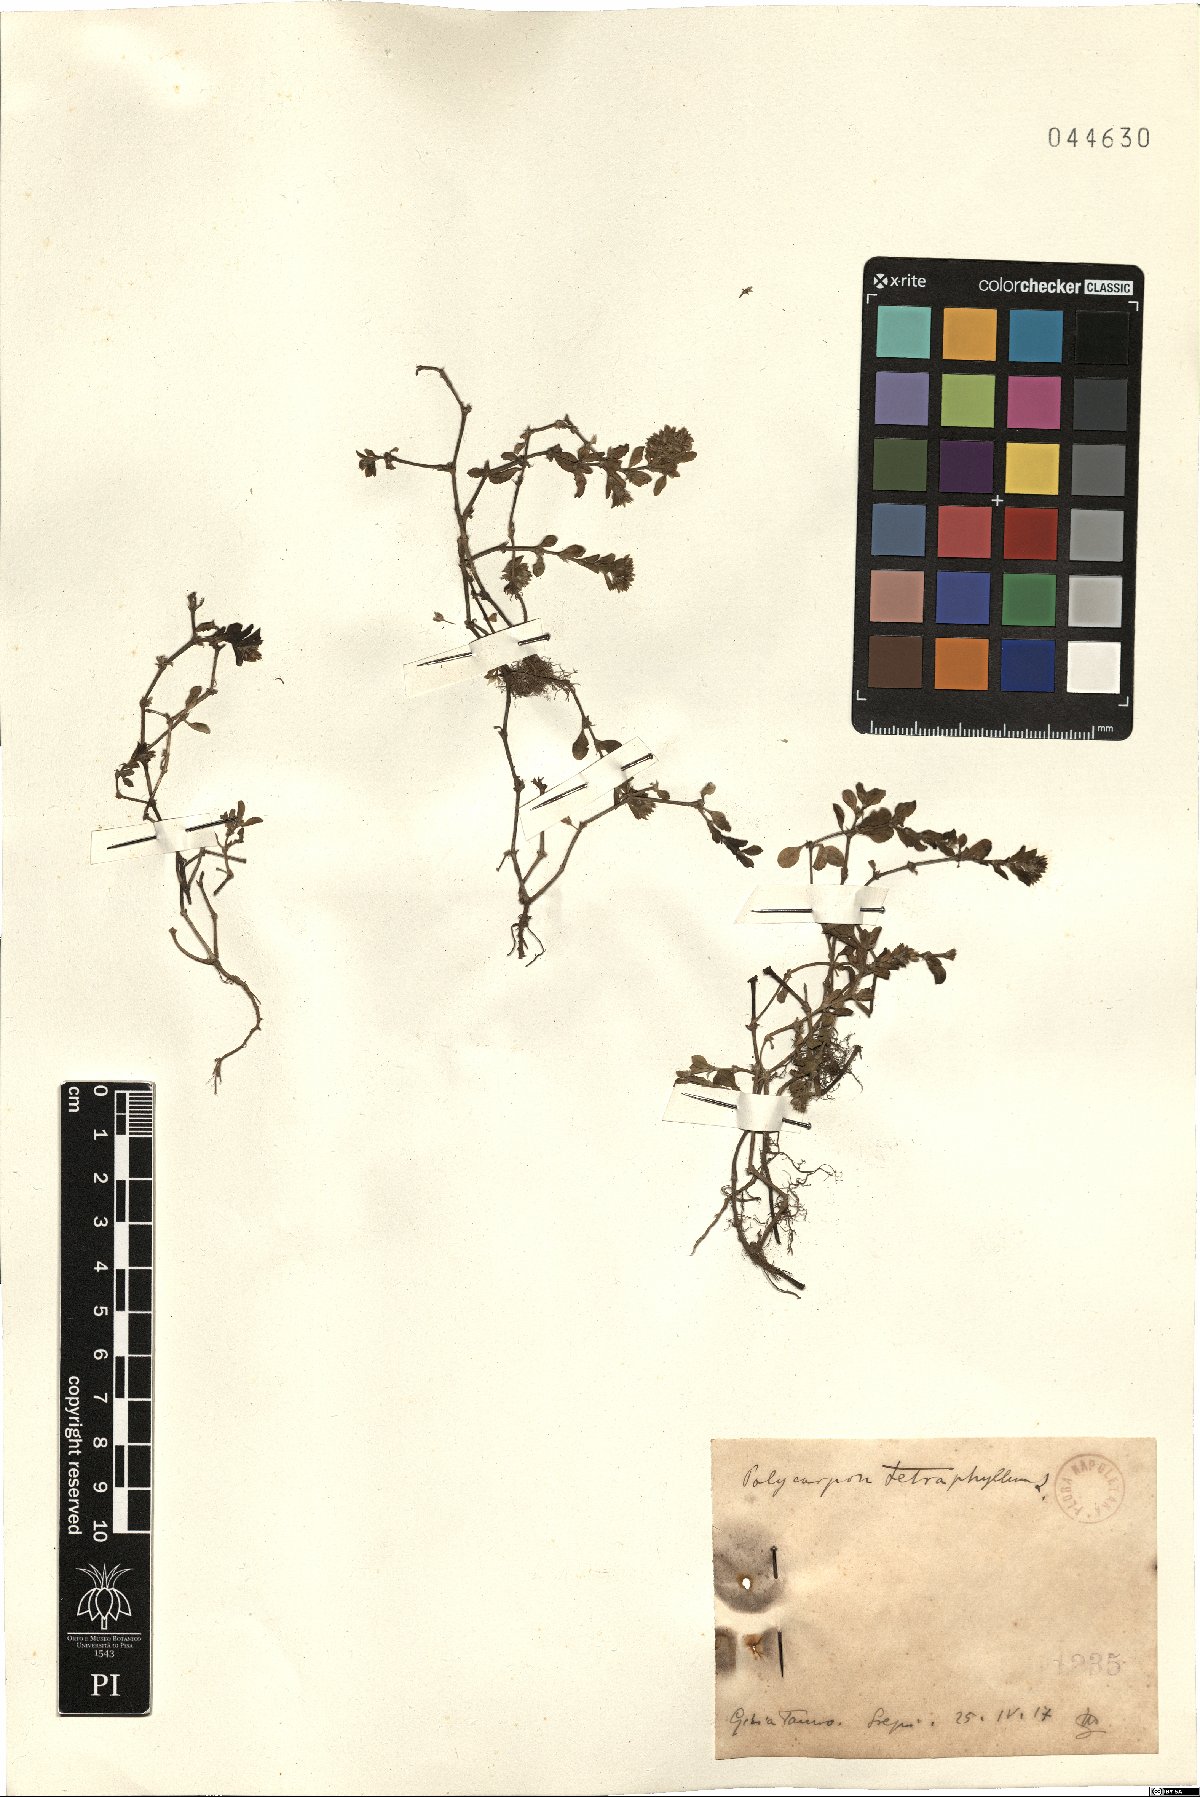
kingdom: Plantae
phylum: Tracheophyta
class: Magnoliopsida
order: Caryophyllales
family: Caryophyllaceae
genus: Polycarpon
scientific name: Polycarpon tetraphyllum
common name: Four-leaved all-seed
